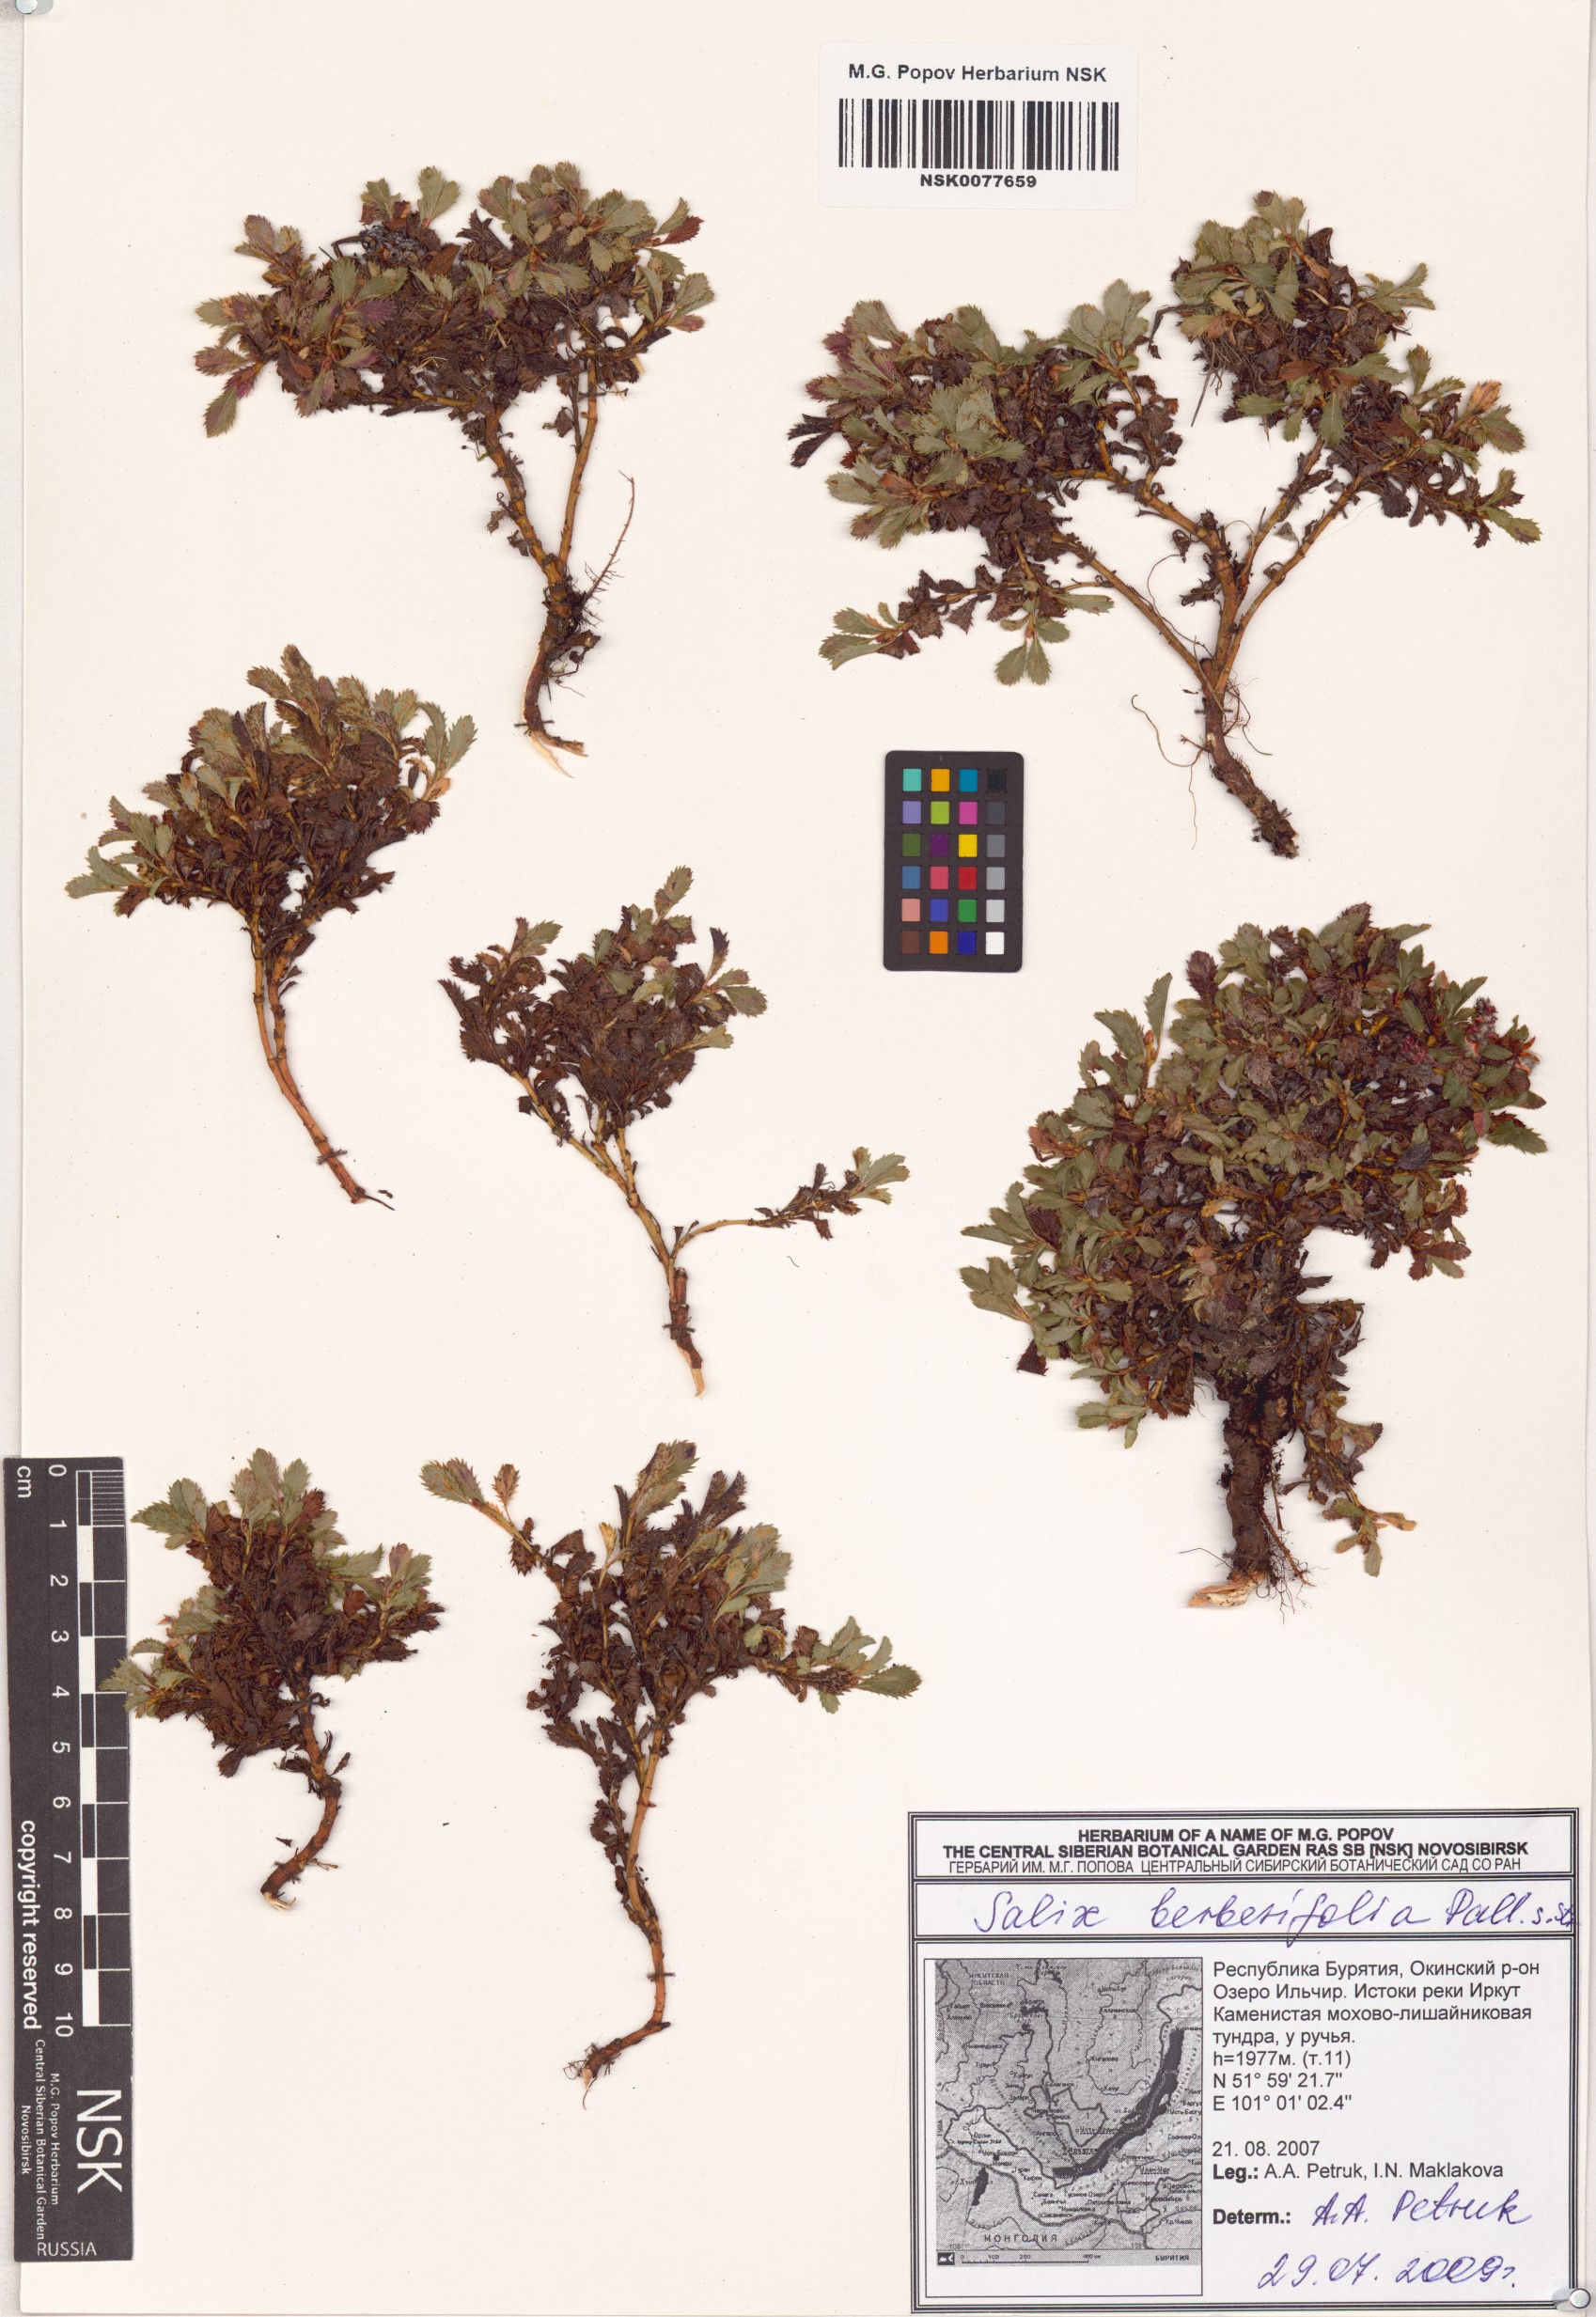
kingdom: Plantae
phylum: Tracheophyta
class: Magnoliopsida
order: Malpighiales
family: Salicaceae
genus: Salix
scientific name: Salix berberifolia
